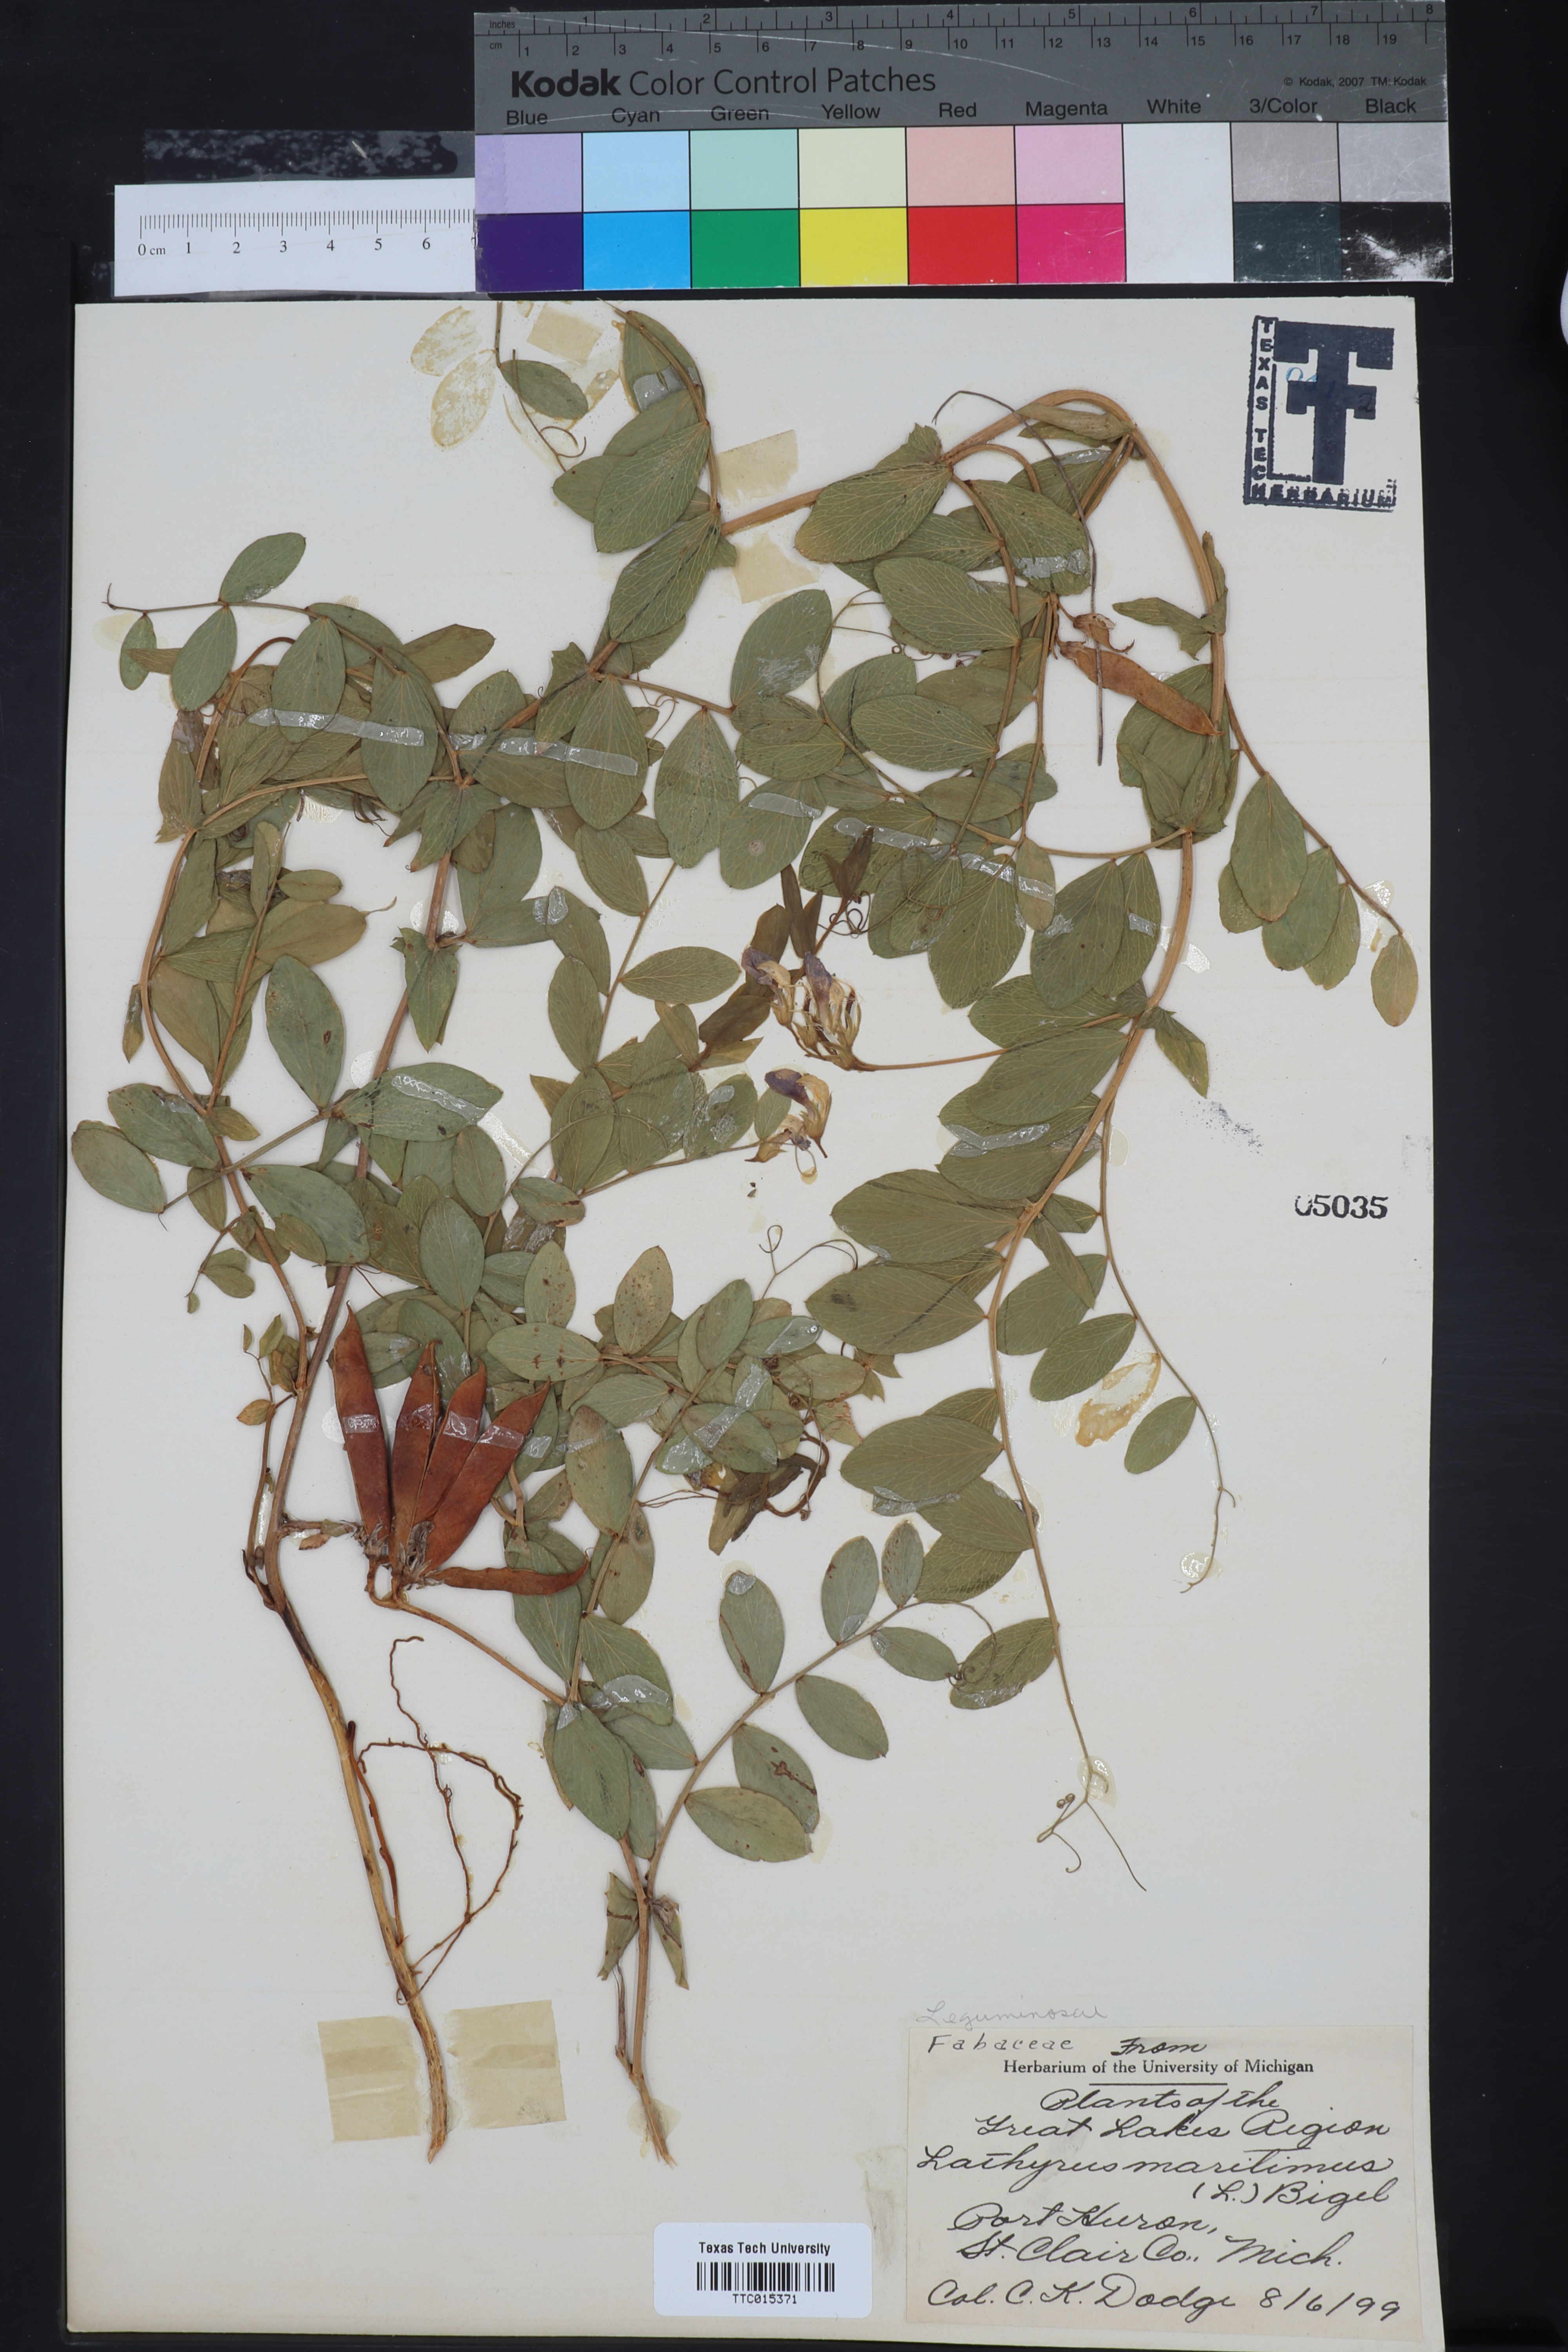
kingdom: Plantae
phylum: Tracheophyta
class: Magnoliopsida
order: Fabales
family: Fabaceae
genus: Lathyrus
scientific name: Lathyrus japonicus
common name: Sea pea
